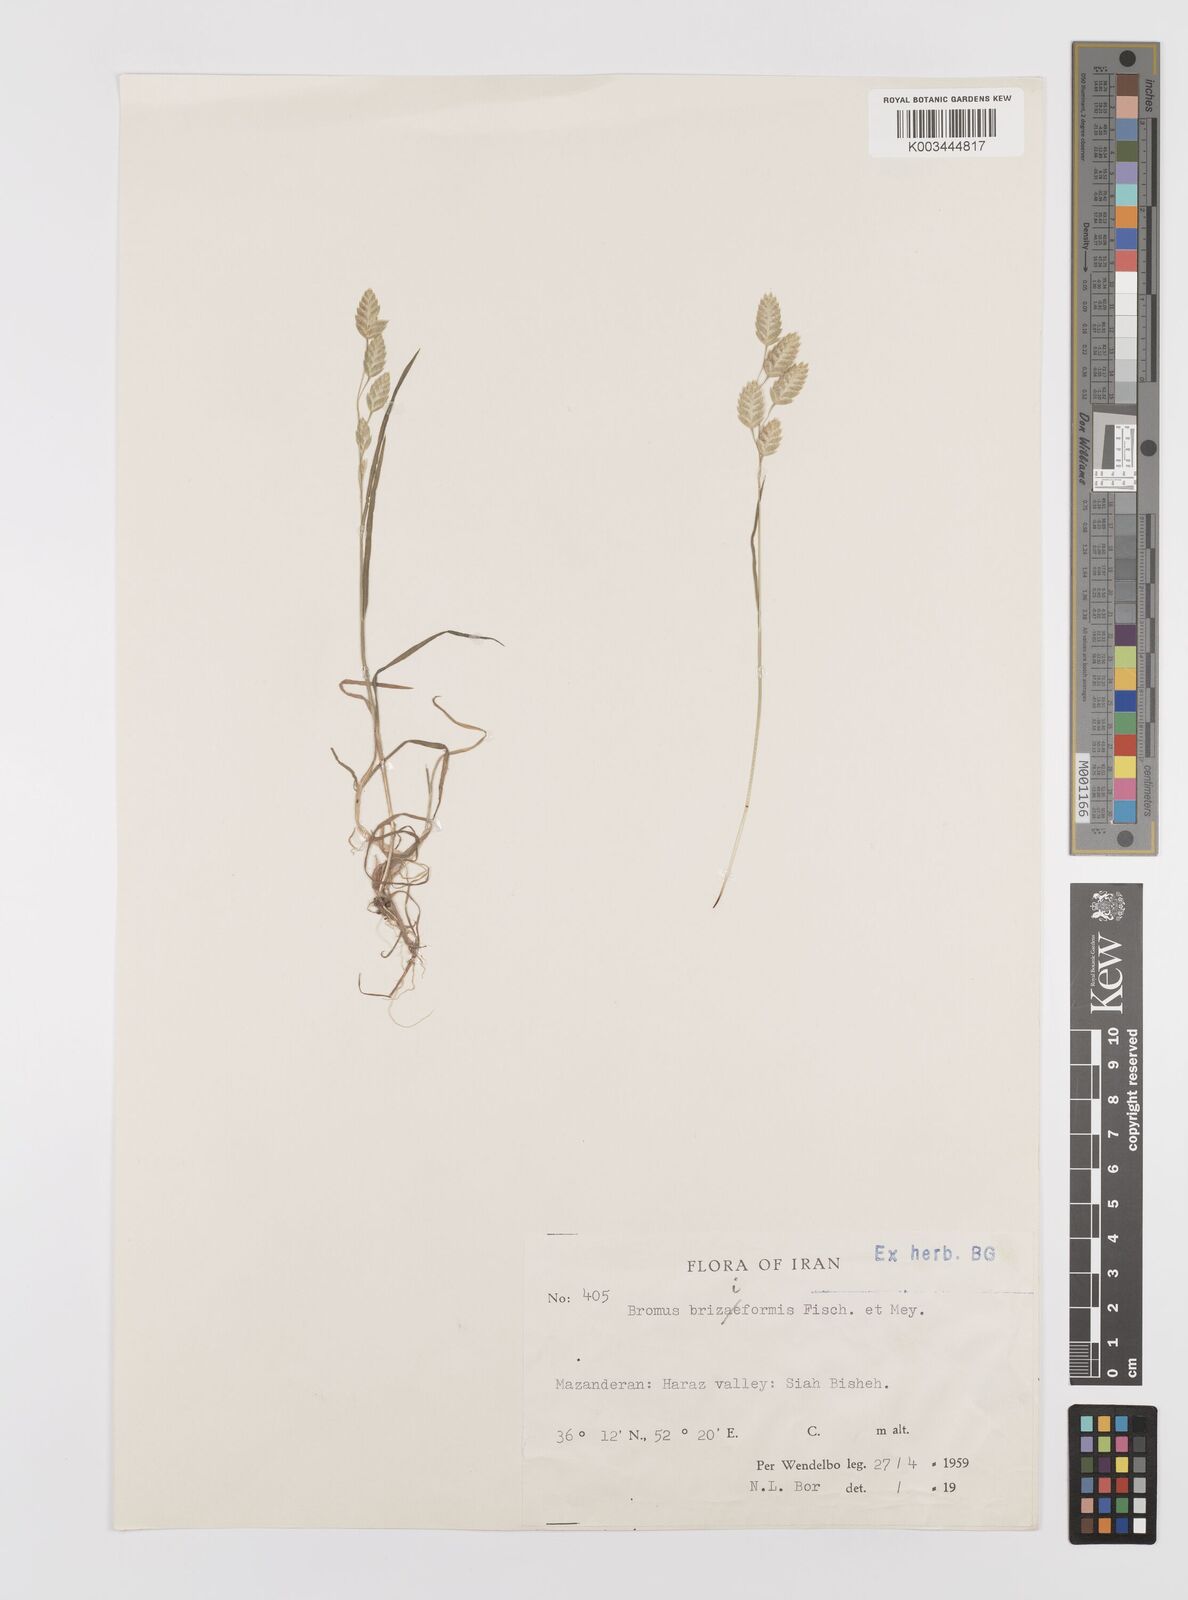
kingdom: Plantae
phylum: Tracheophyta
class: Liliopsida
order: Poales
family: Poaceae
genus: Bromus
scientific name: Bromus briziformis
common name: Rattlesnake brome
